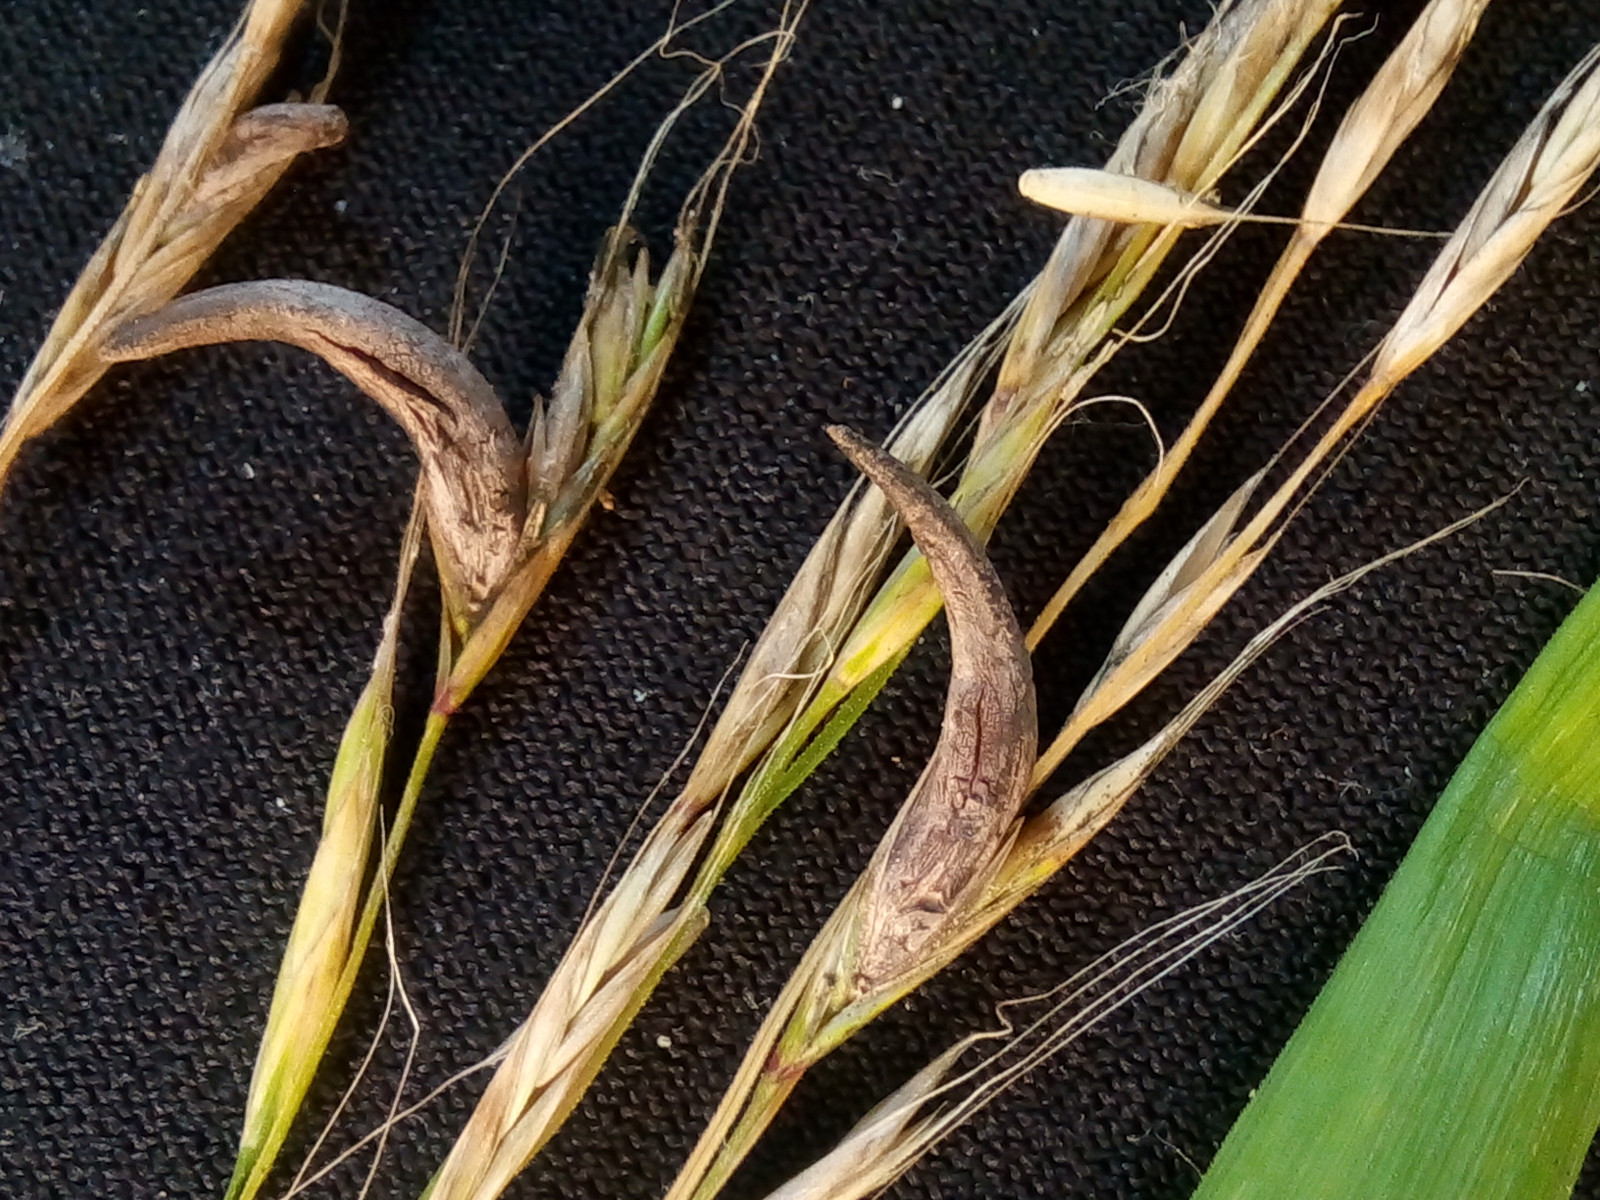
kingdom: Fungi
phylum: Ascomycota
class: Sordariomycetes
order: Hypocreales
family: Clavicipitaceae
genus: Claviceps
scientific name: Claviceps purpurea
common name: almindelig meldrøjer
